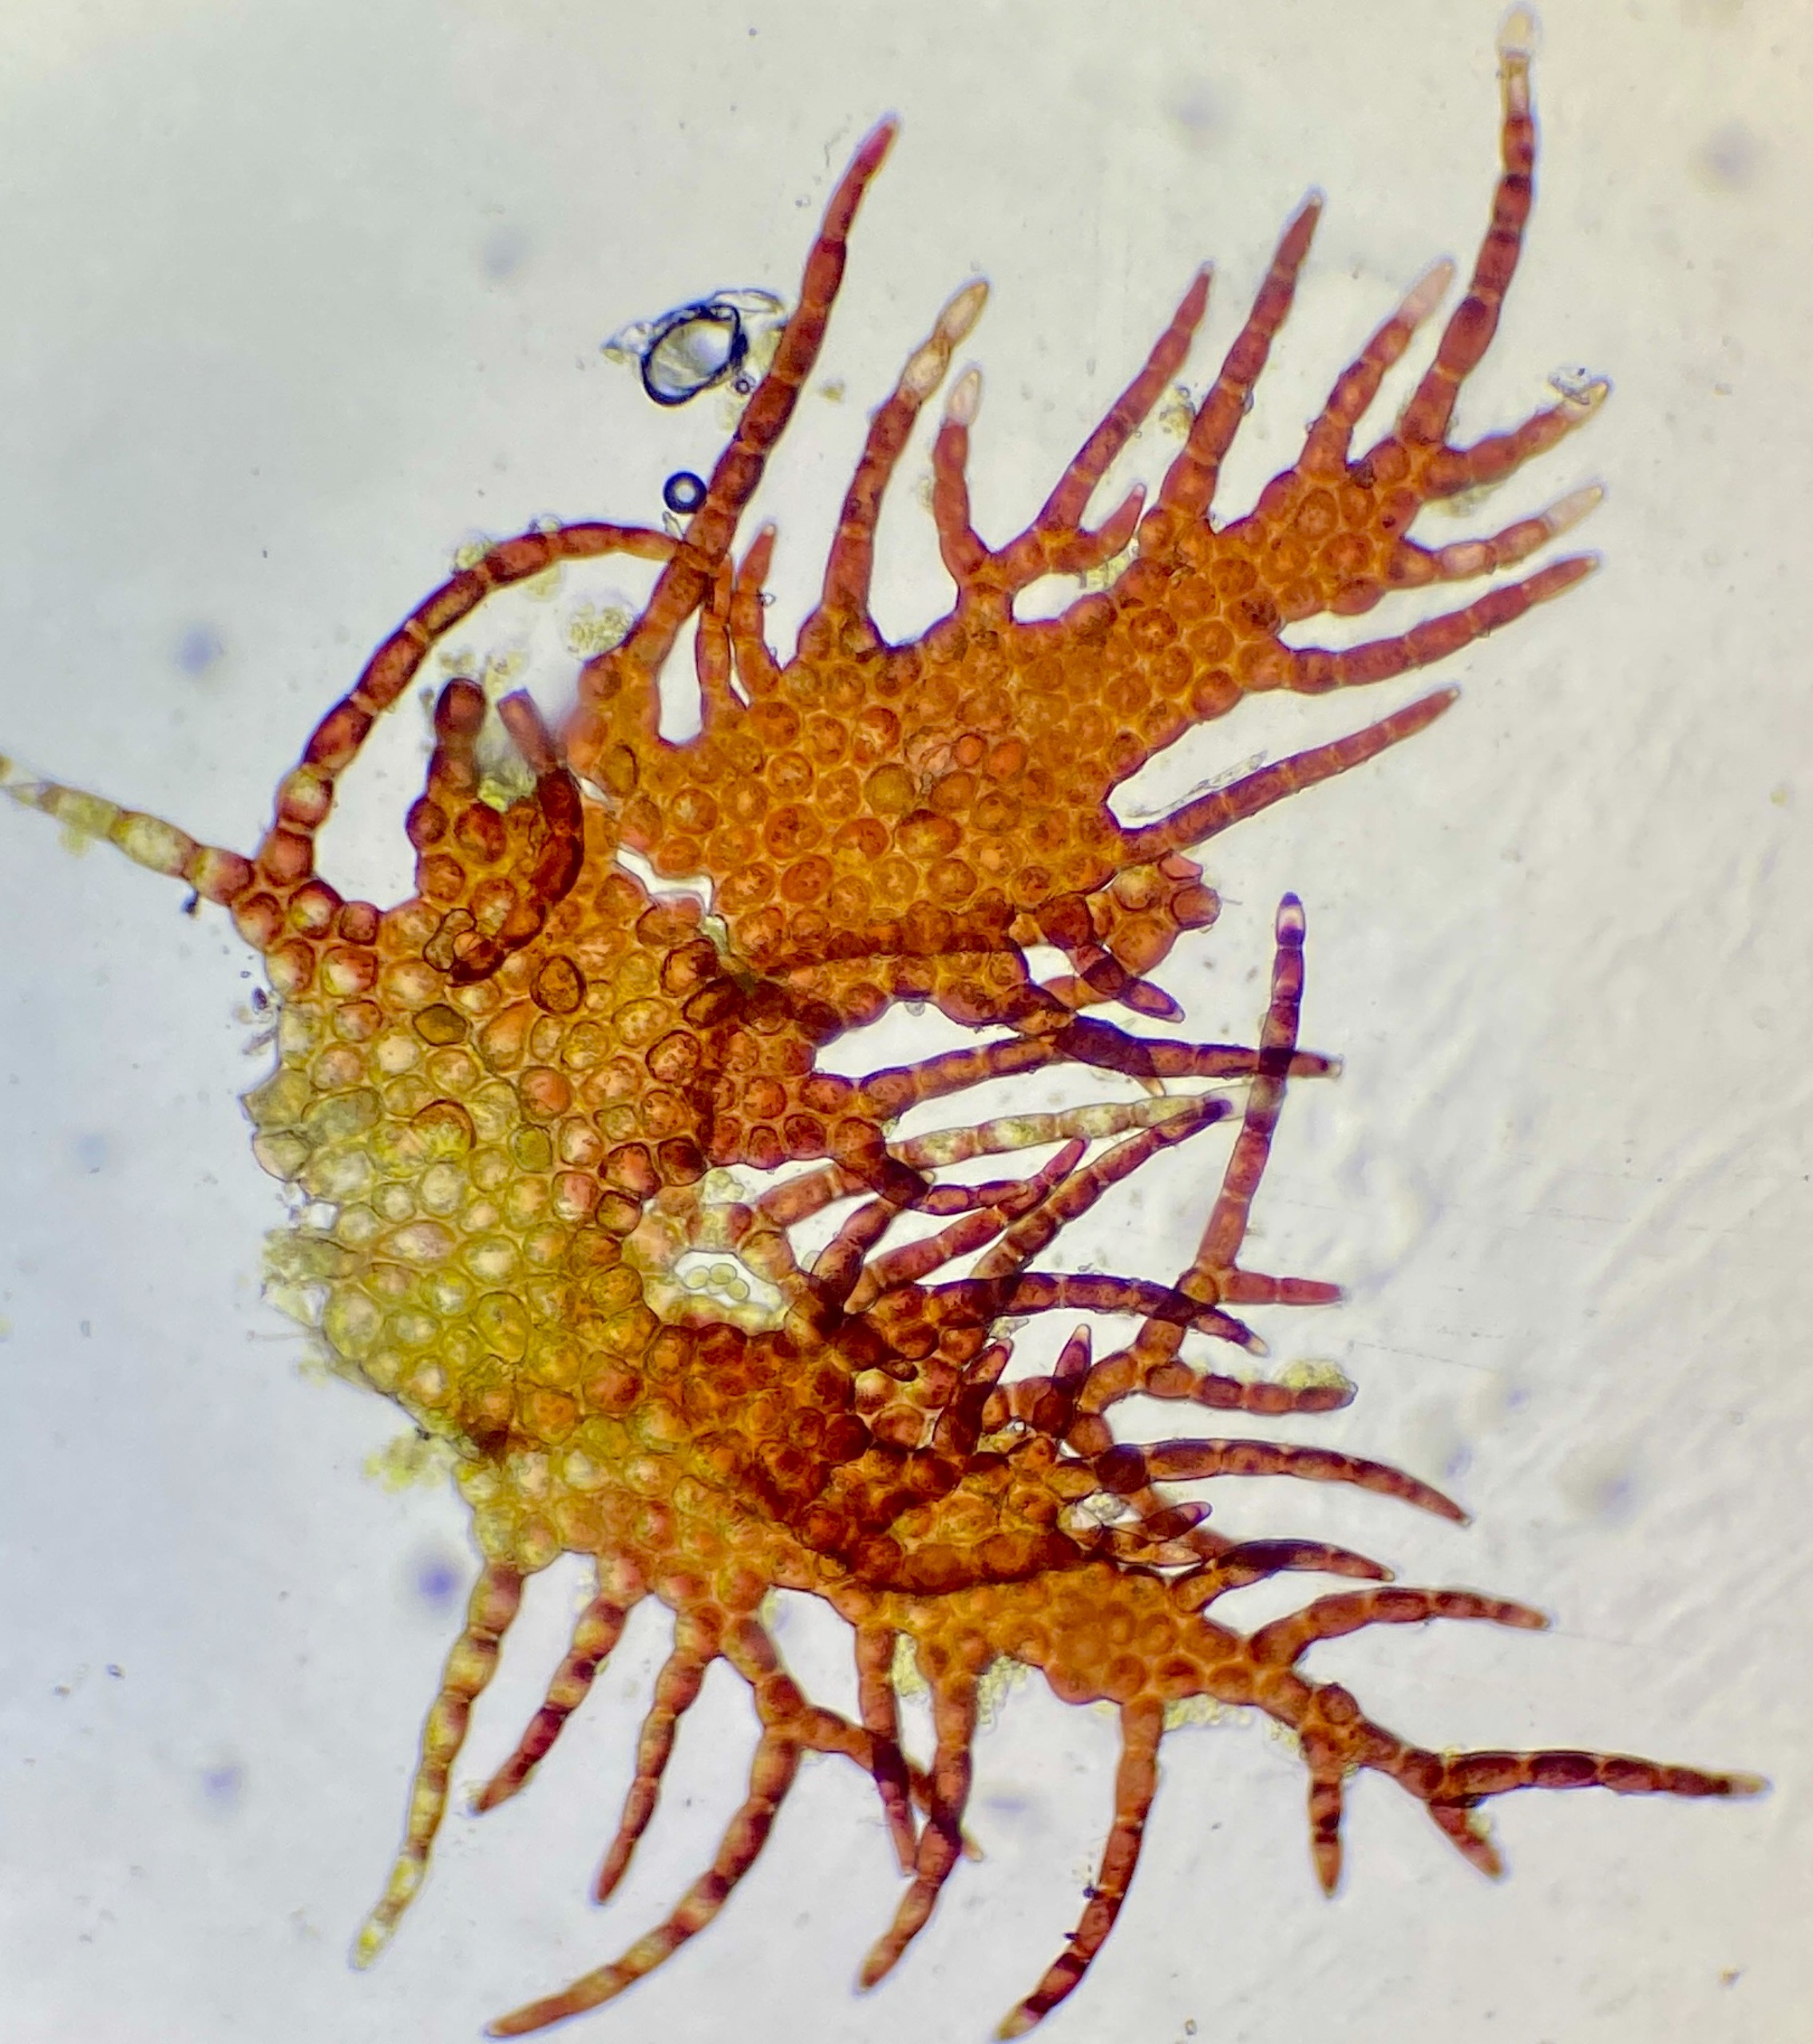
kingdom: Plantae
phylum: Marchantiophyta
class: Jungermanniopsida
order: Ptilidiales
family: Ptilidiaceae
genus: Ptilidium
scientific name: Ptilidium pulcherrimum
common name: Stub-frynsemos
